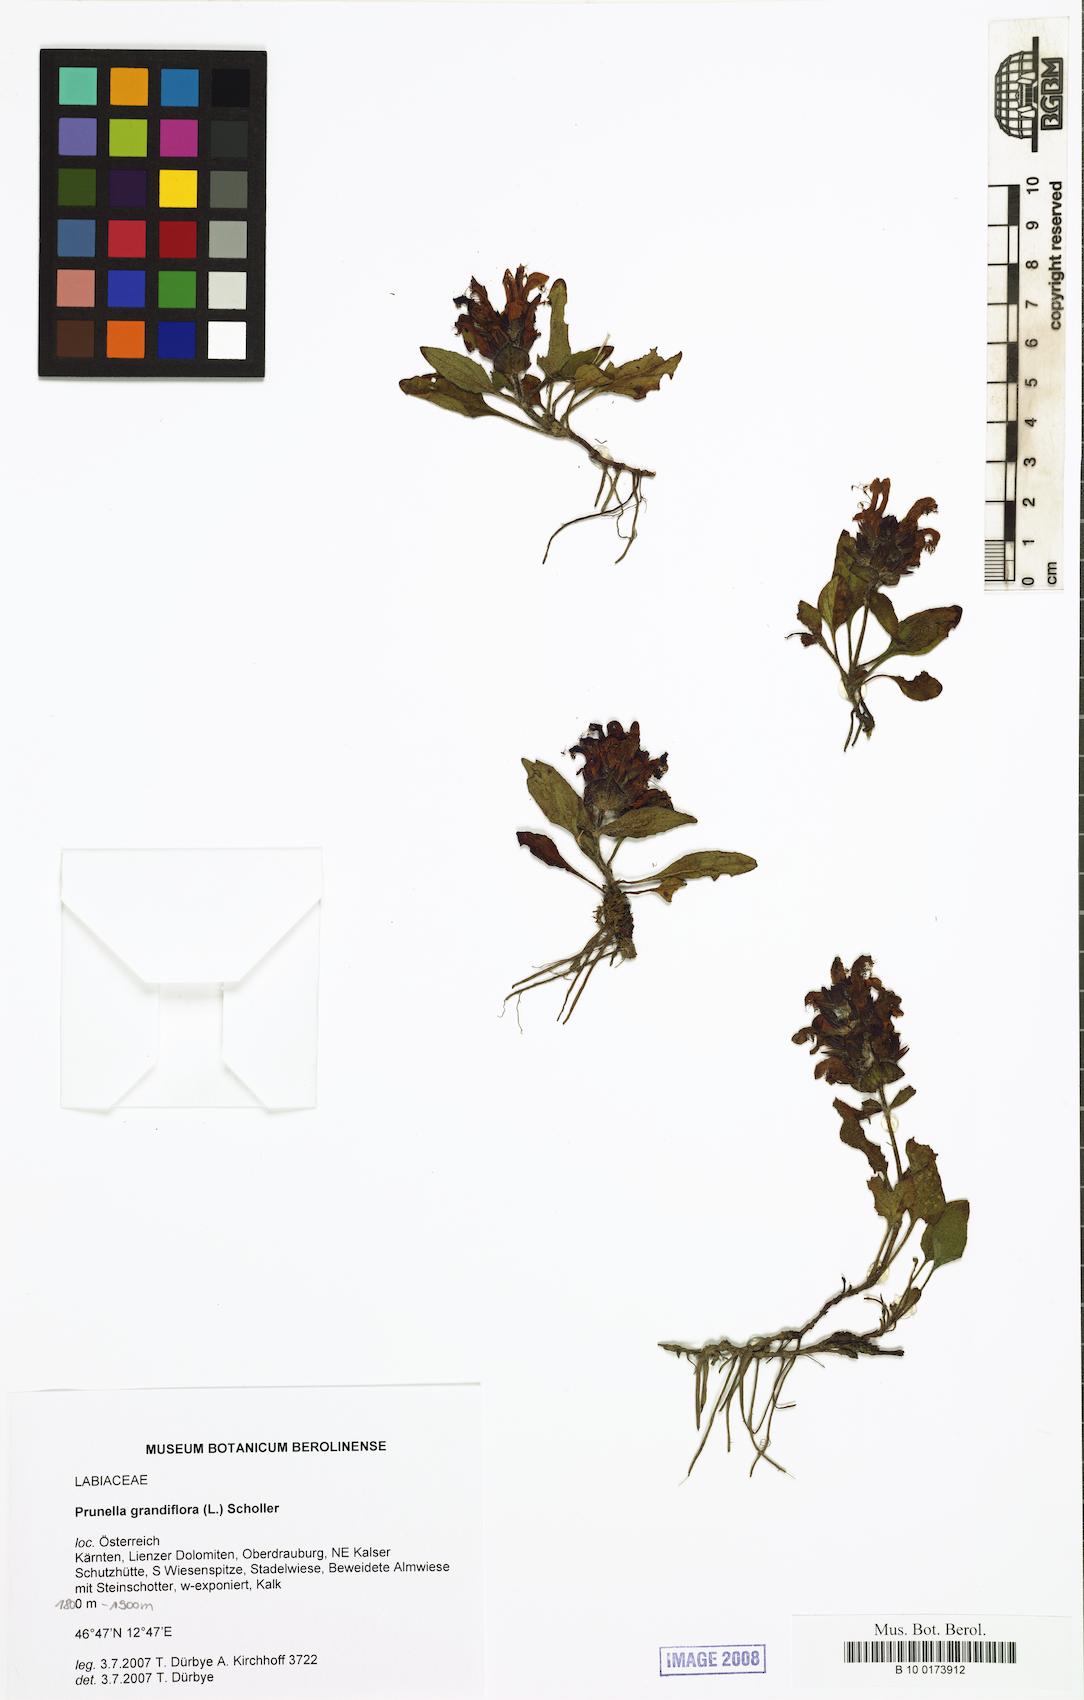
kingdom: Plantae
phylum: Tracheophyta
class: Magnoliopsida
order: Lamiales
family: Lamiaceae
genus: Prunella
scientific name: Prunella grandiflora
